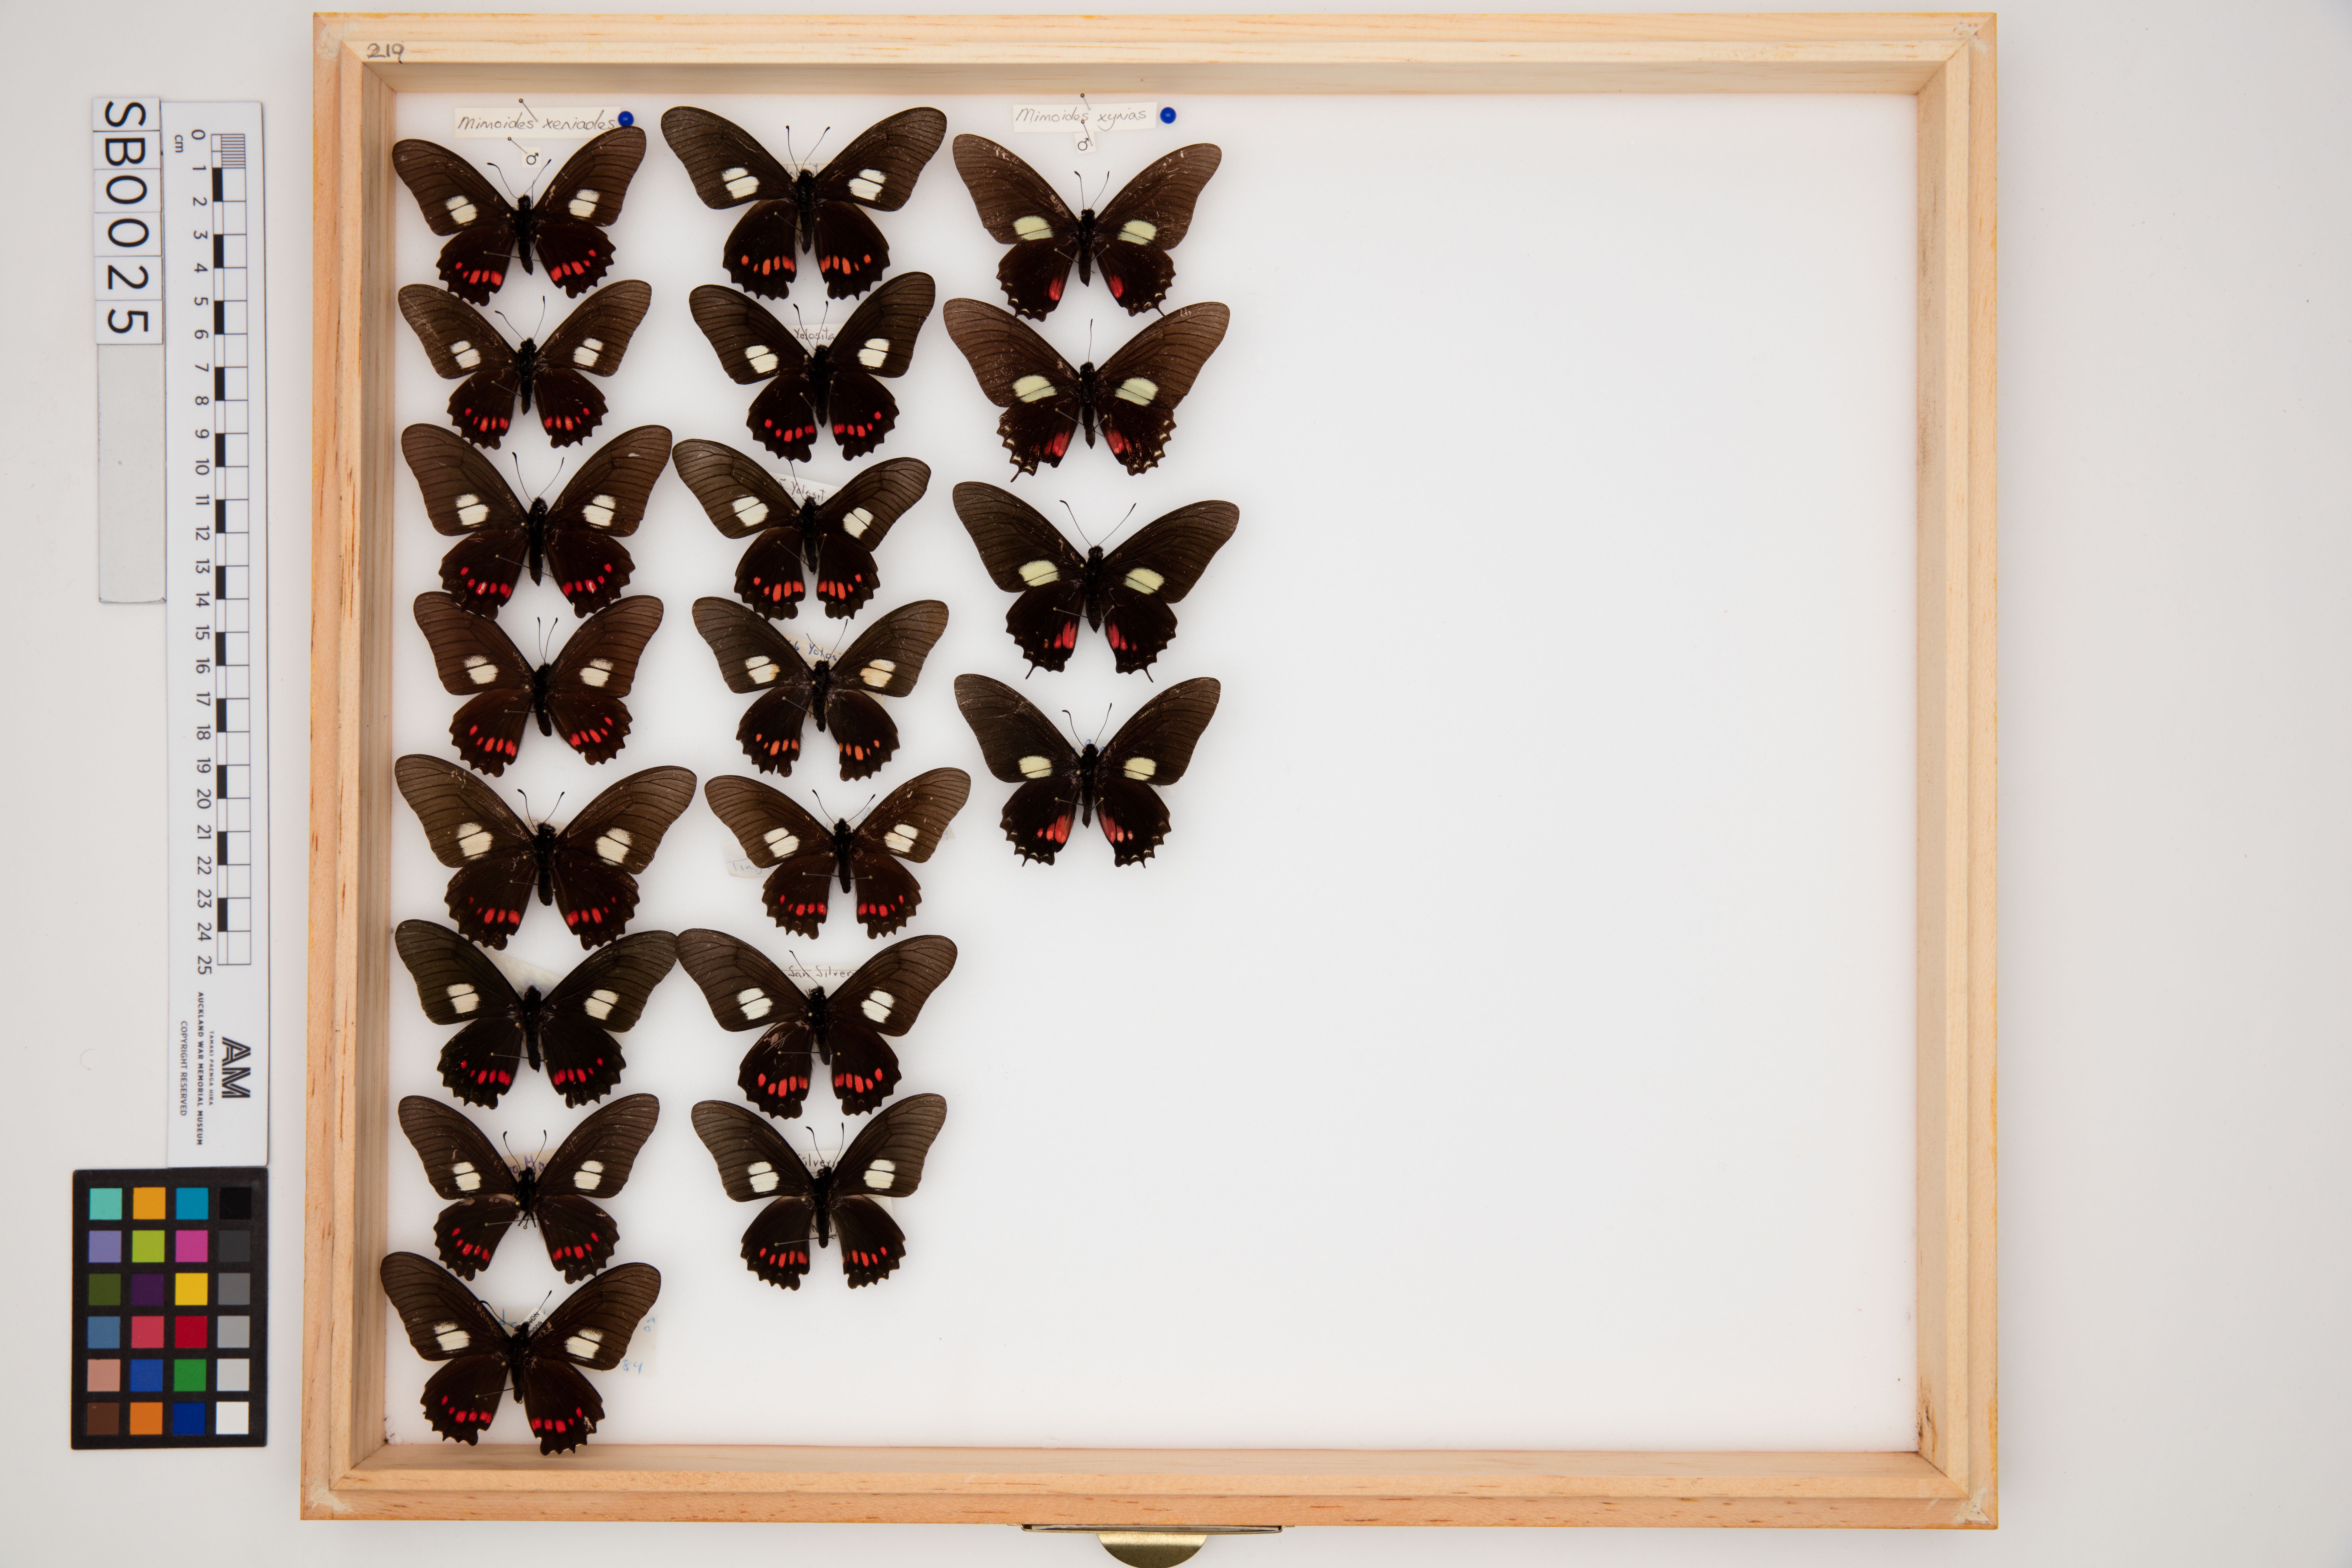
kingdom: Animalia
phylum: Arthropoda
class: Insecta
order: Lepidoptera
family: Papilionidae
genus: Mimoides
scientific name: Mimoides xynias
